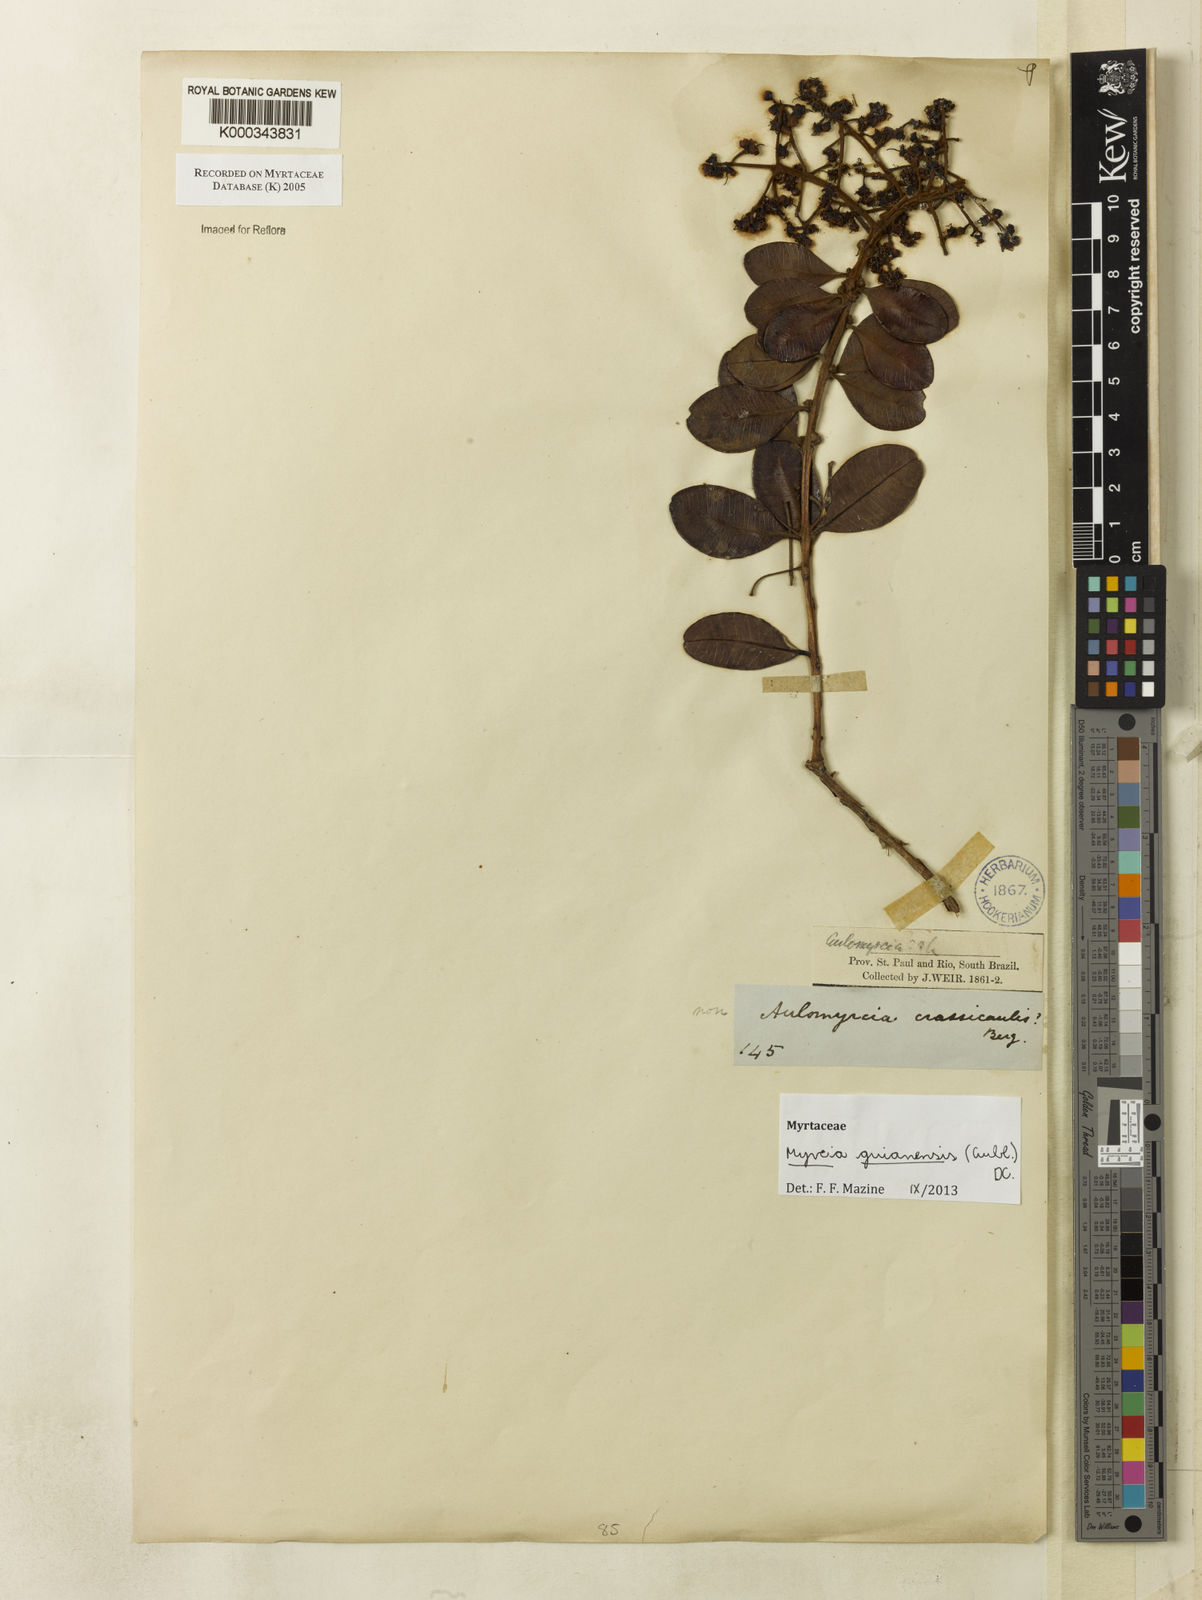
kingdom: Plantae
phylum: Tracheophyta
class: Magnoliopsida
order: Myrtales
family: Myrtaceae
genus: Myrcia
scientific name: Myrcia
